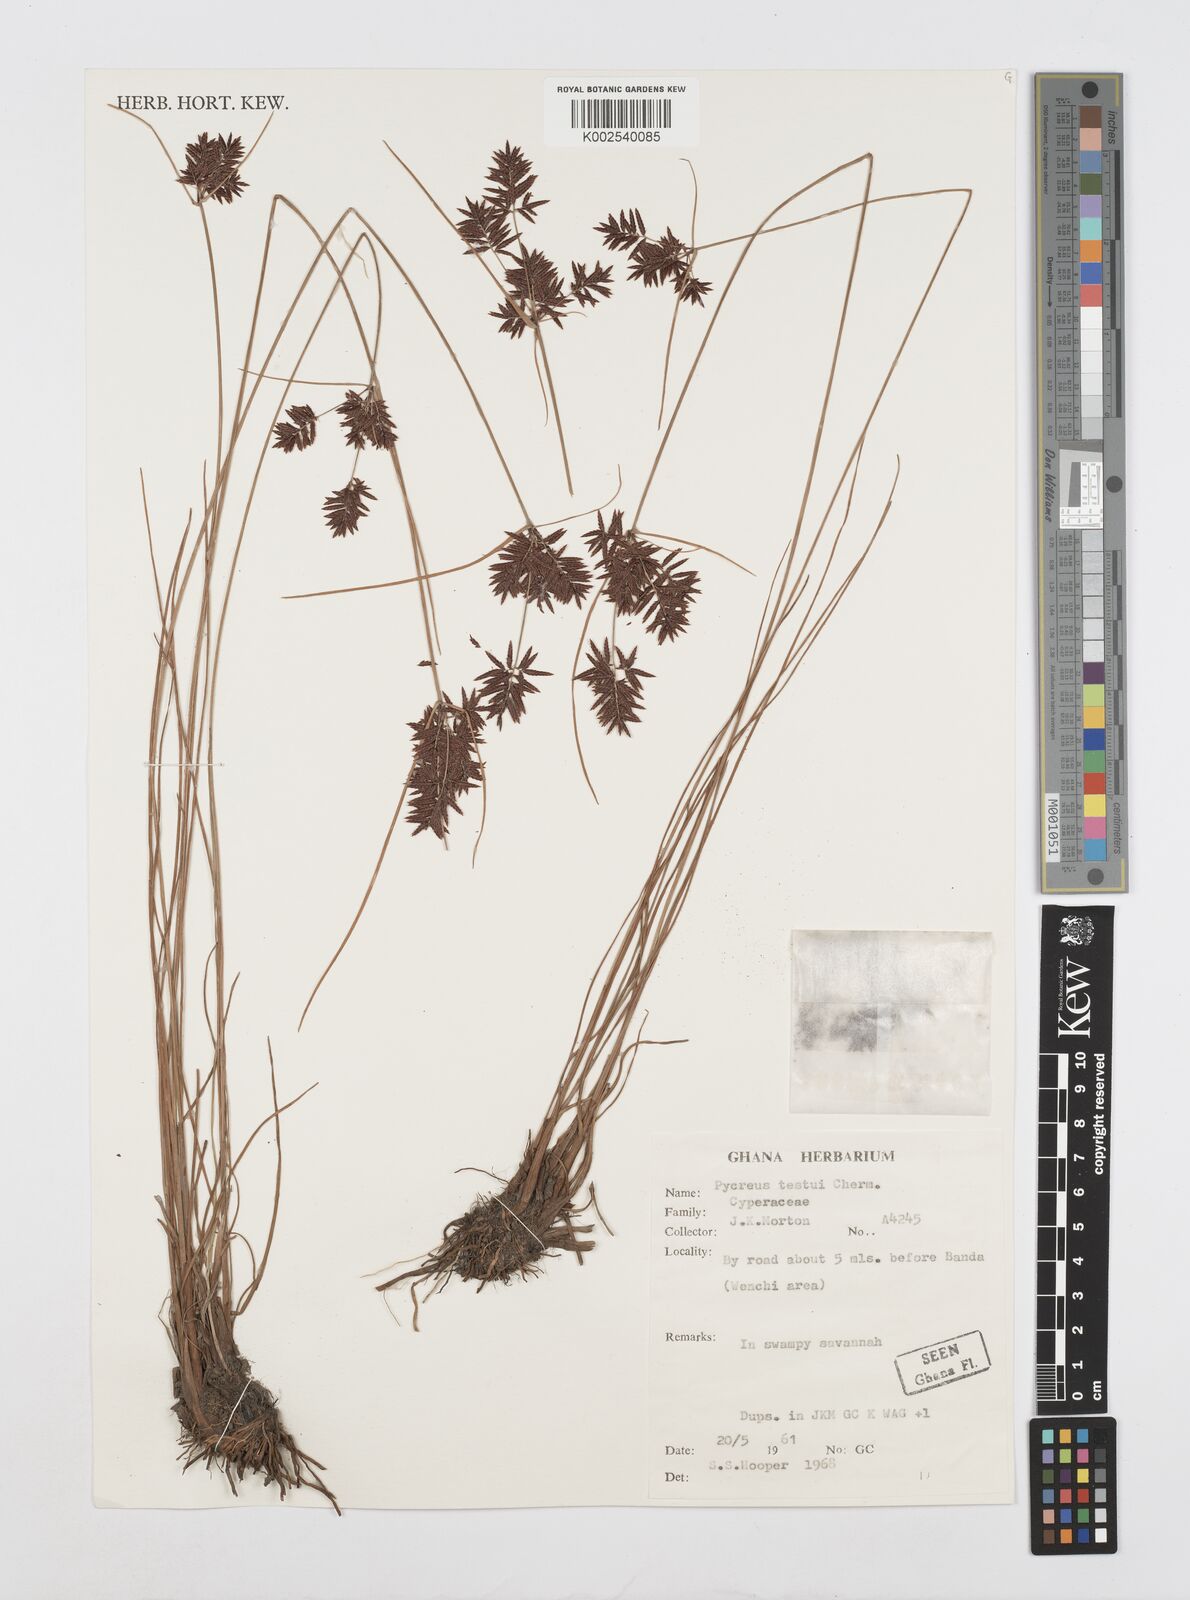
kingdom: Plantae
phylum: Tracheophyta
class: Liliopsida
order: Poales
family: Cyperaceae
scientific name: Cyperaceae
